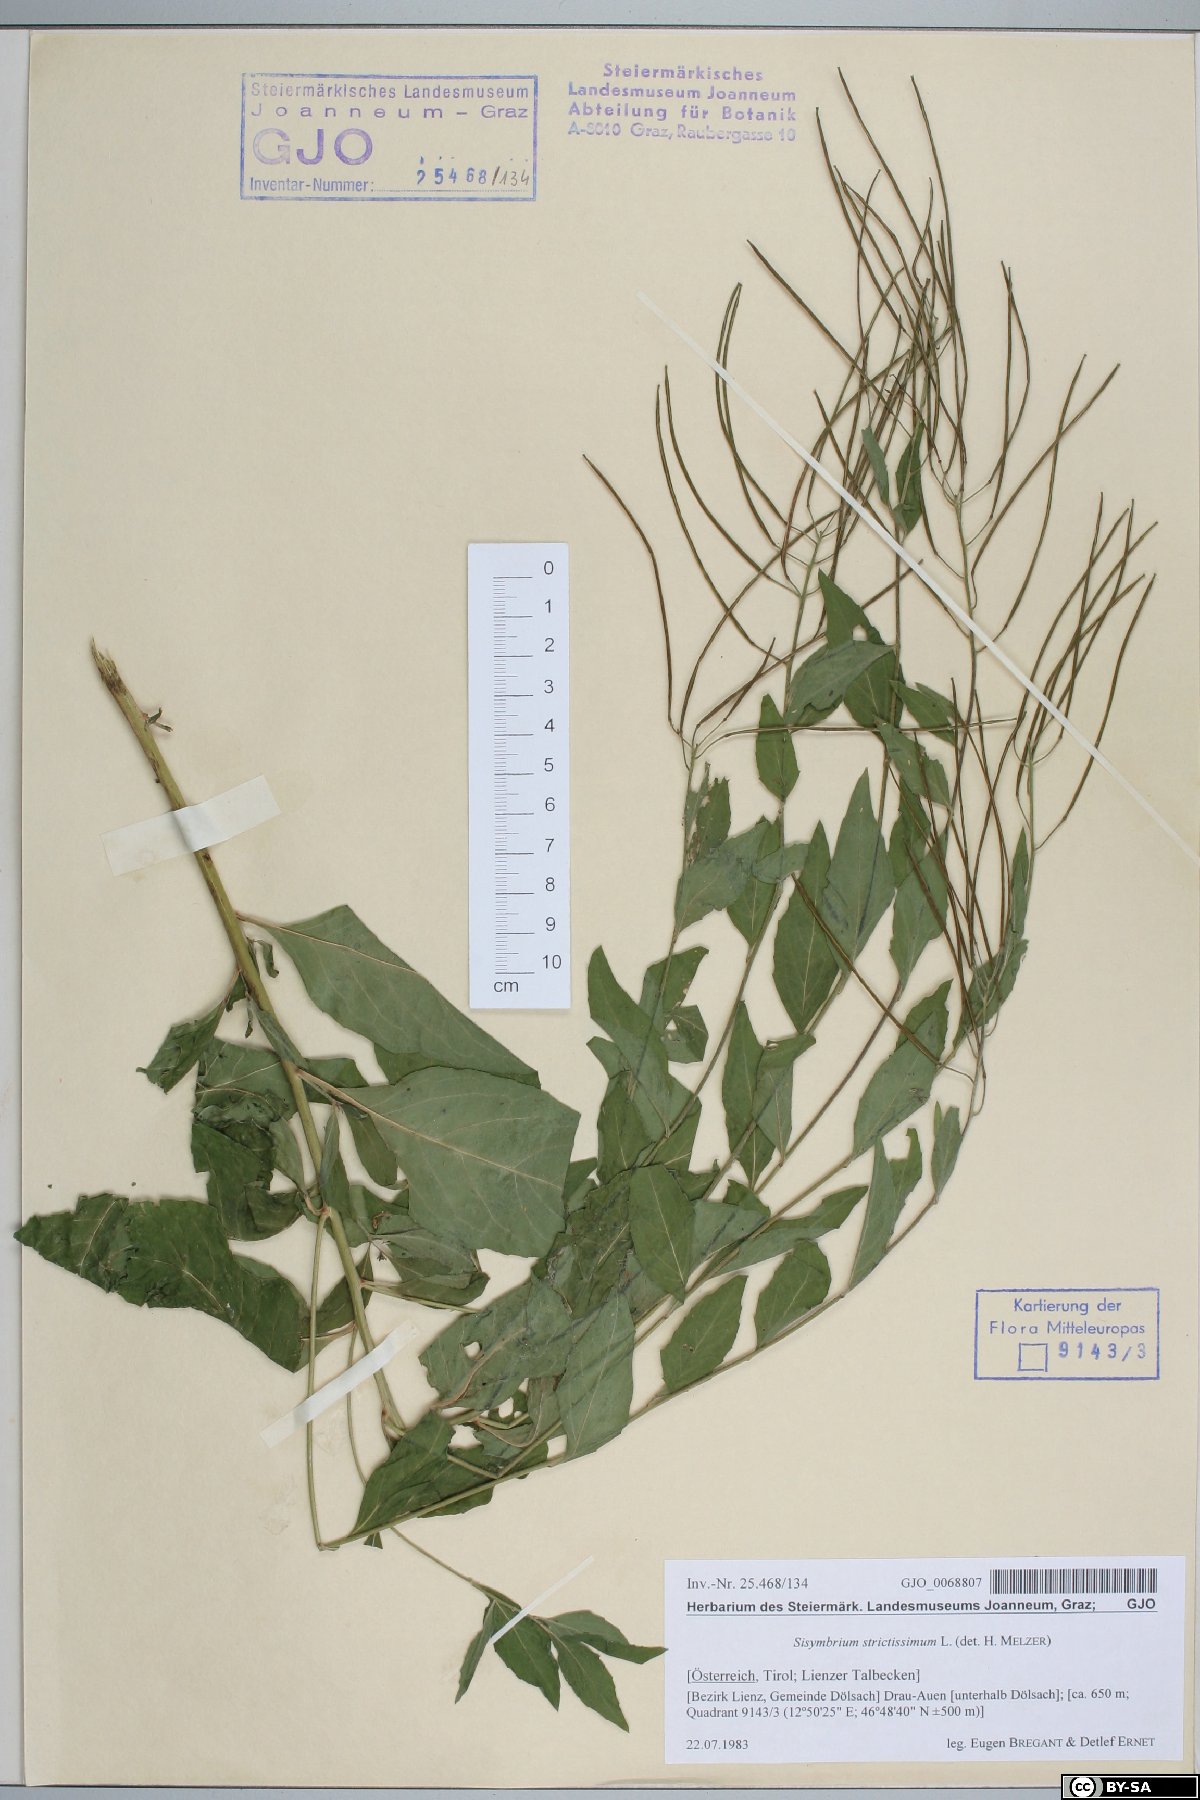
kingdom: Plantae
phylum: Tracheophyta
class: Magnoliopsida
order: Brassicales
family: Brassicaceae
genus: Sisymbrium
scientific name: Sisymbrium strictissimum
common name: Perennial rocket
